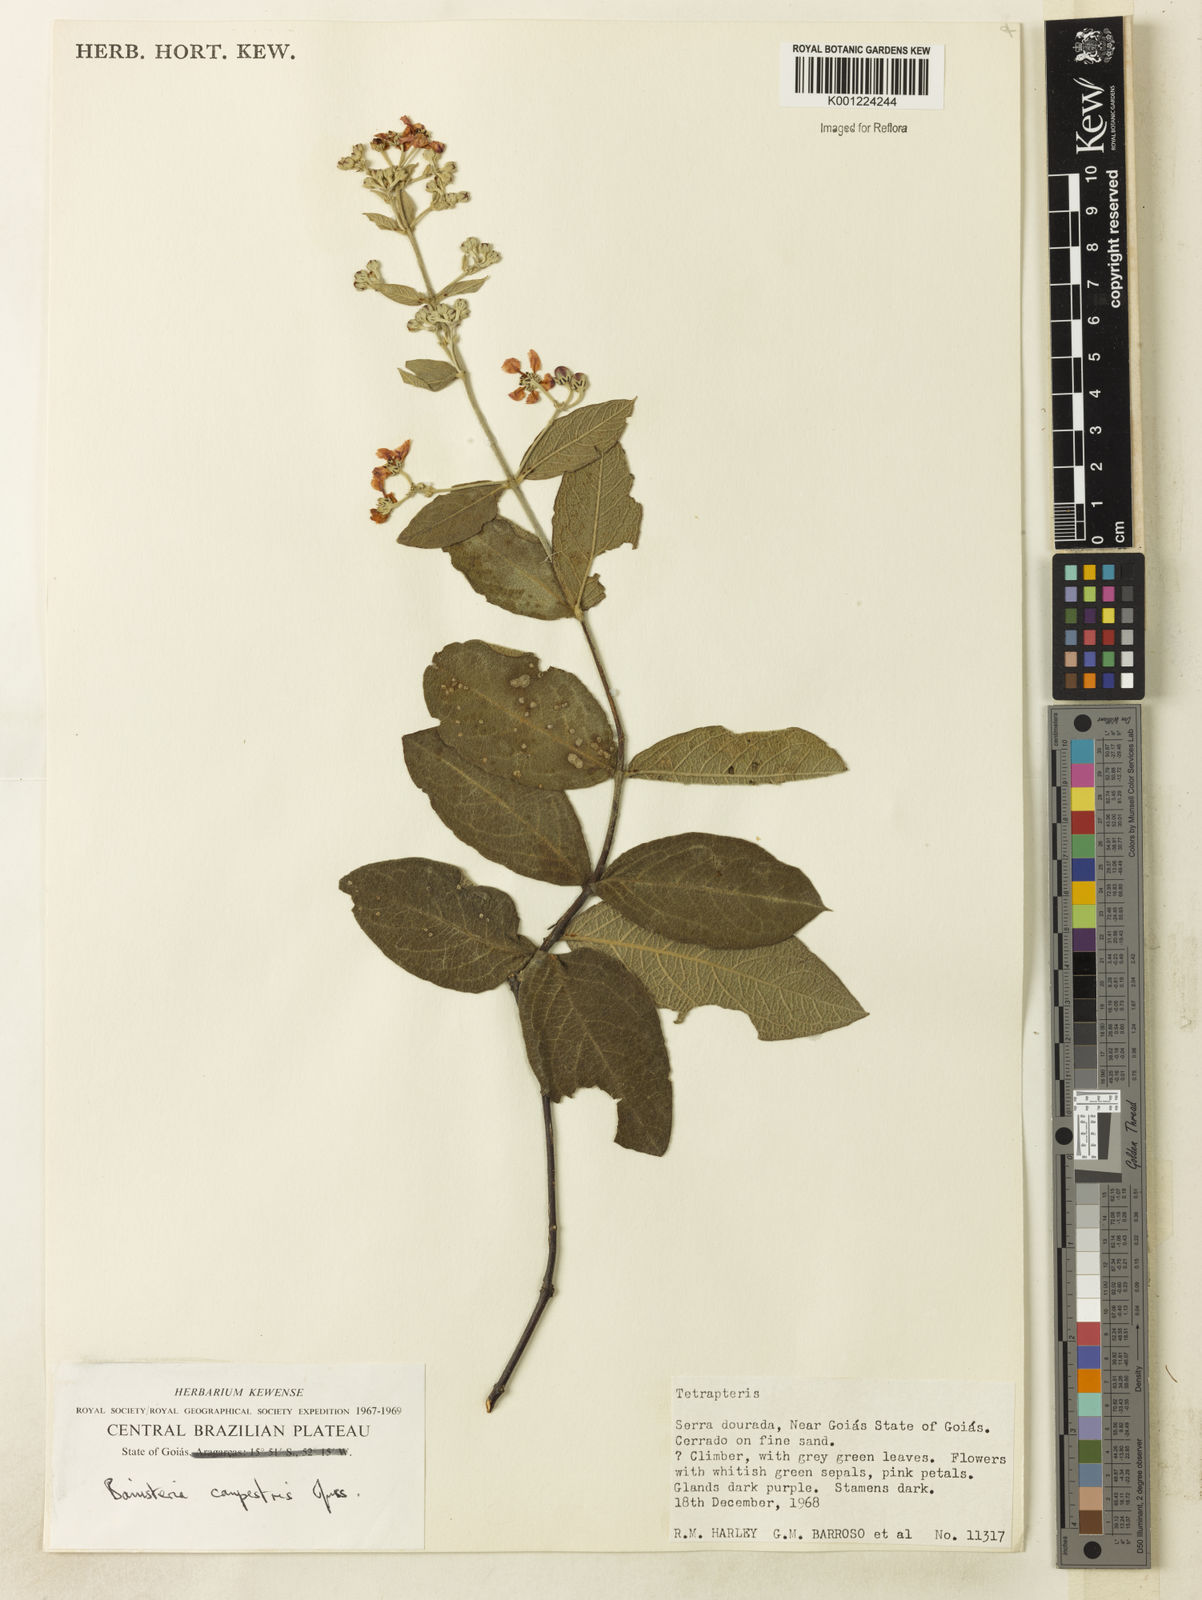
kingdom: Plantae
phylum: Tracheophyta
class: Magnoliopsida
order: Malpighiales
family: Malpighiaceae
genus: Banisteriopsis
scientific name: Banisteriopsis campestris
